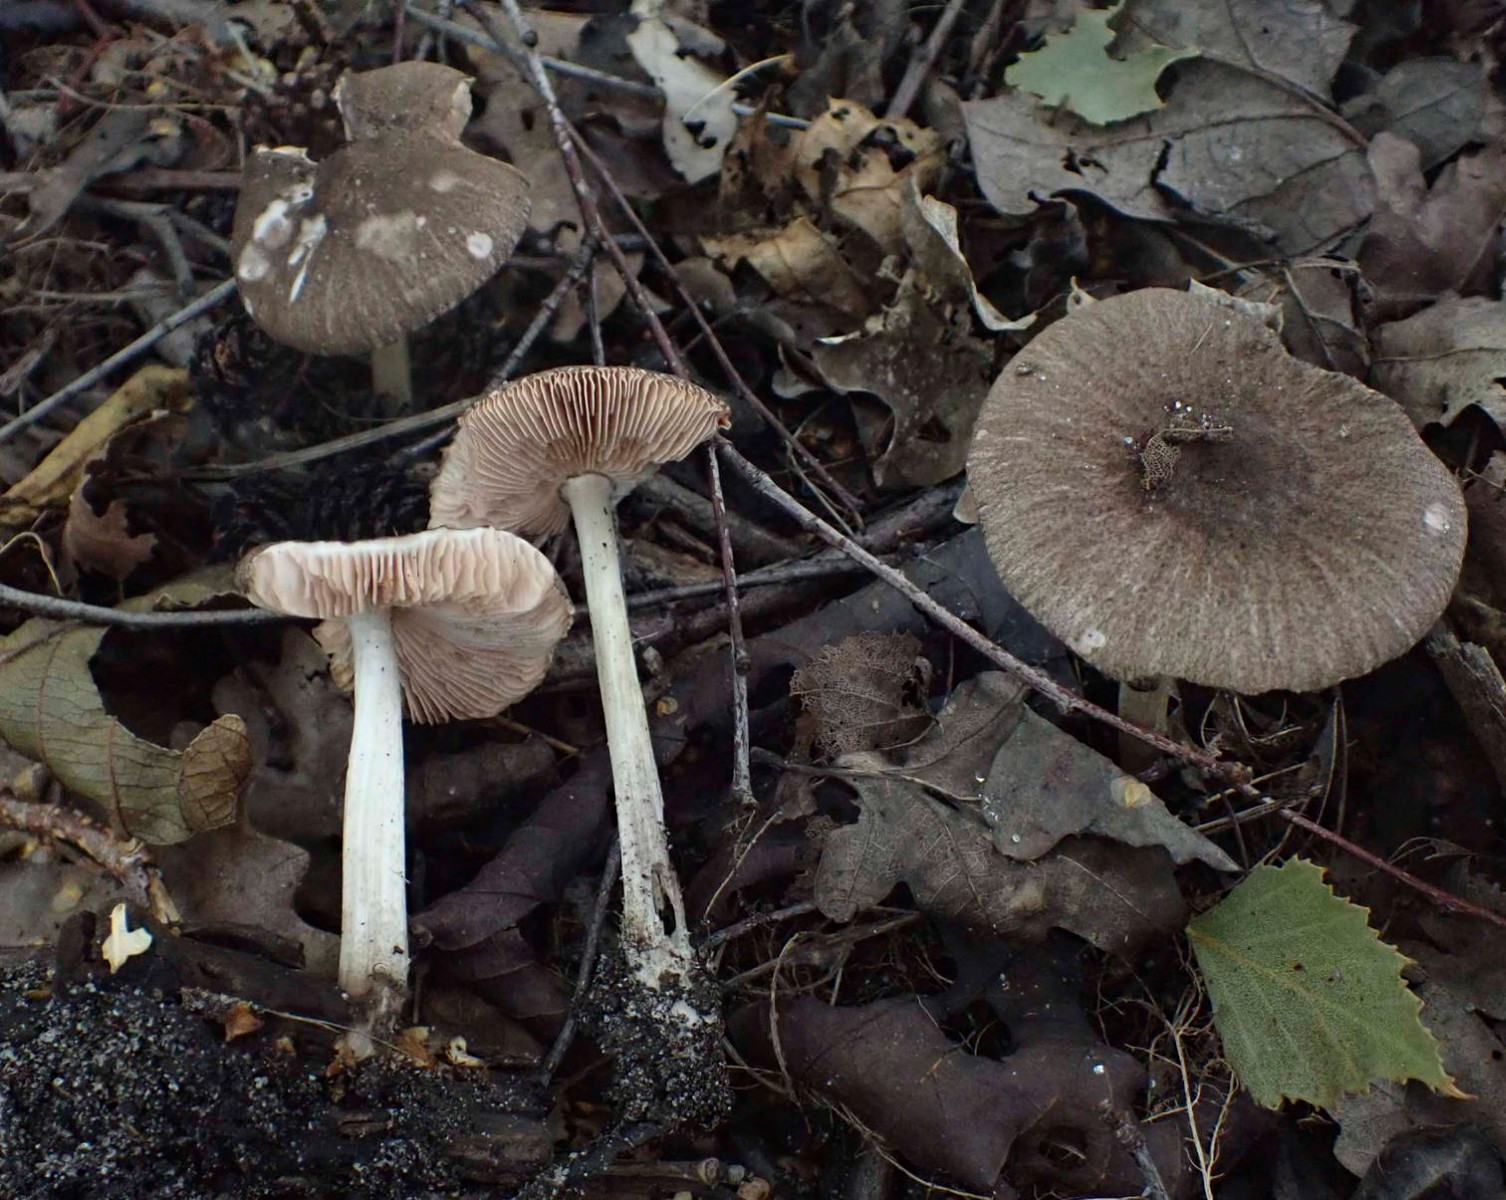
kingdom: Fungi
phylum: Basidiomycota
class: Agaricomycetes
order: Agaricales
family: Pluteaceae
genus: Pluteus
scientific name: Pluteus
